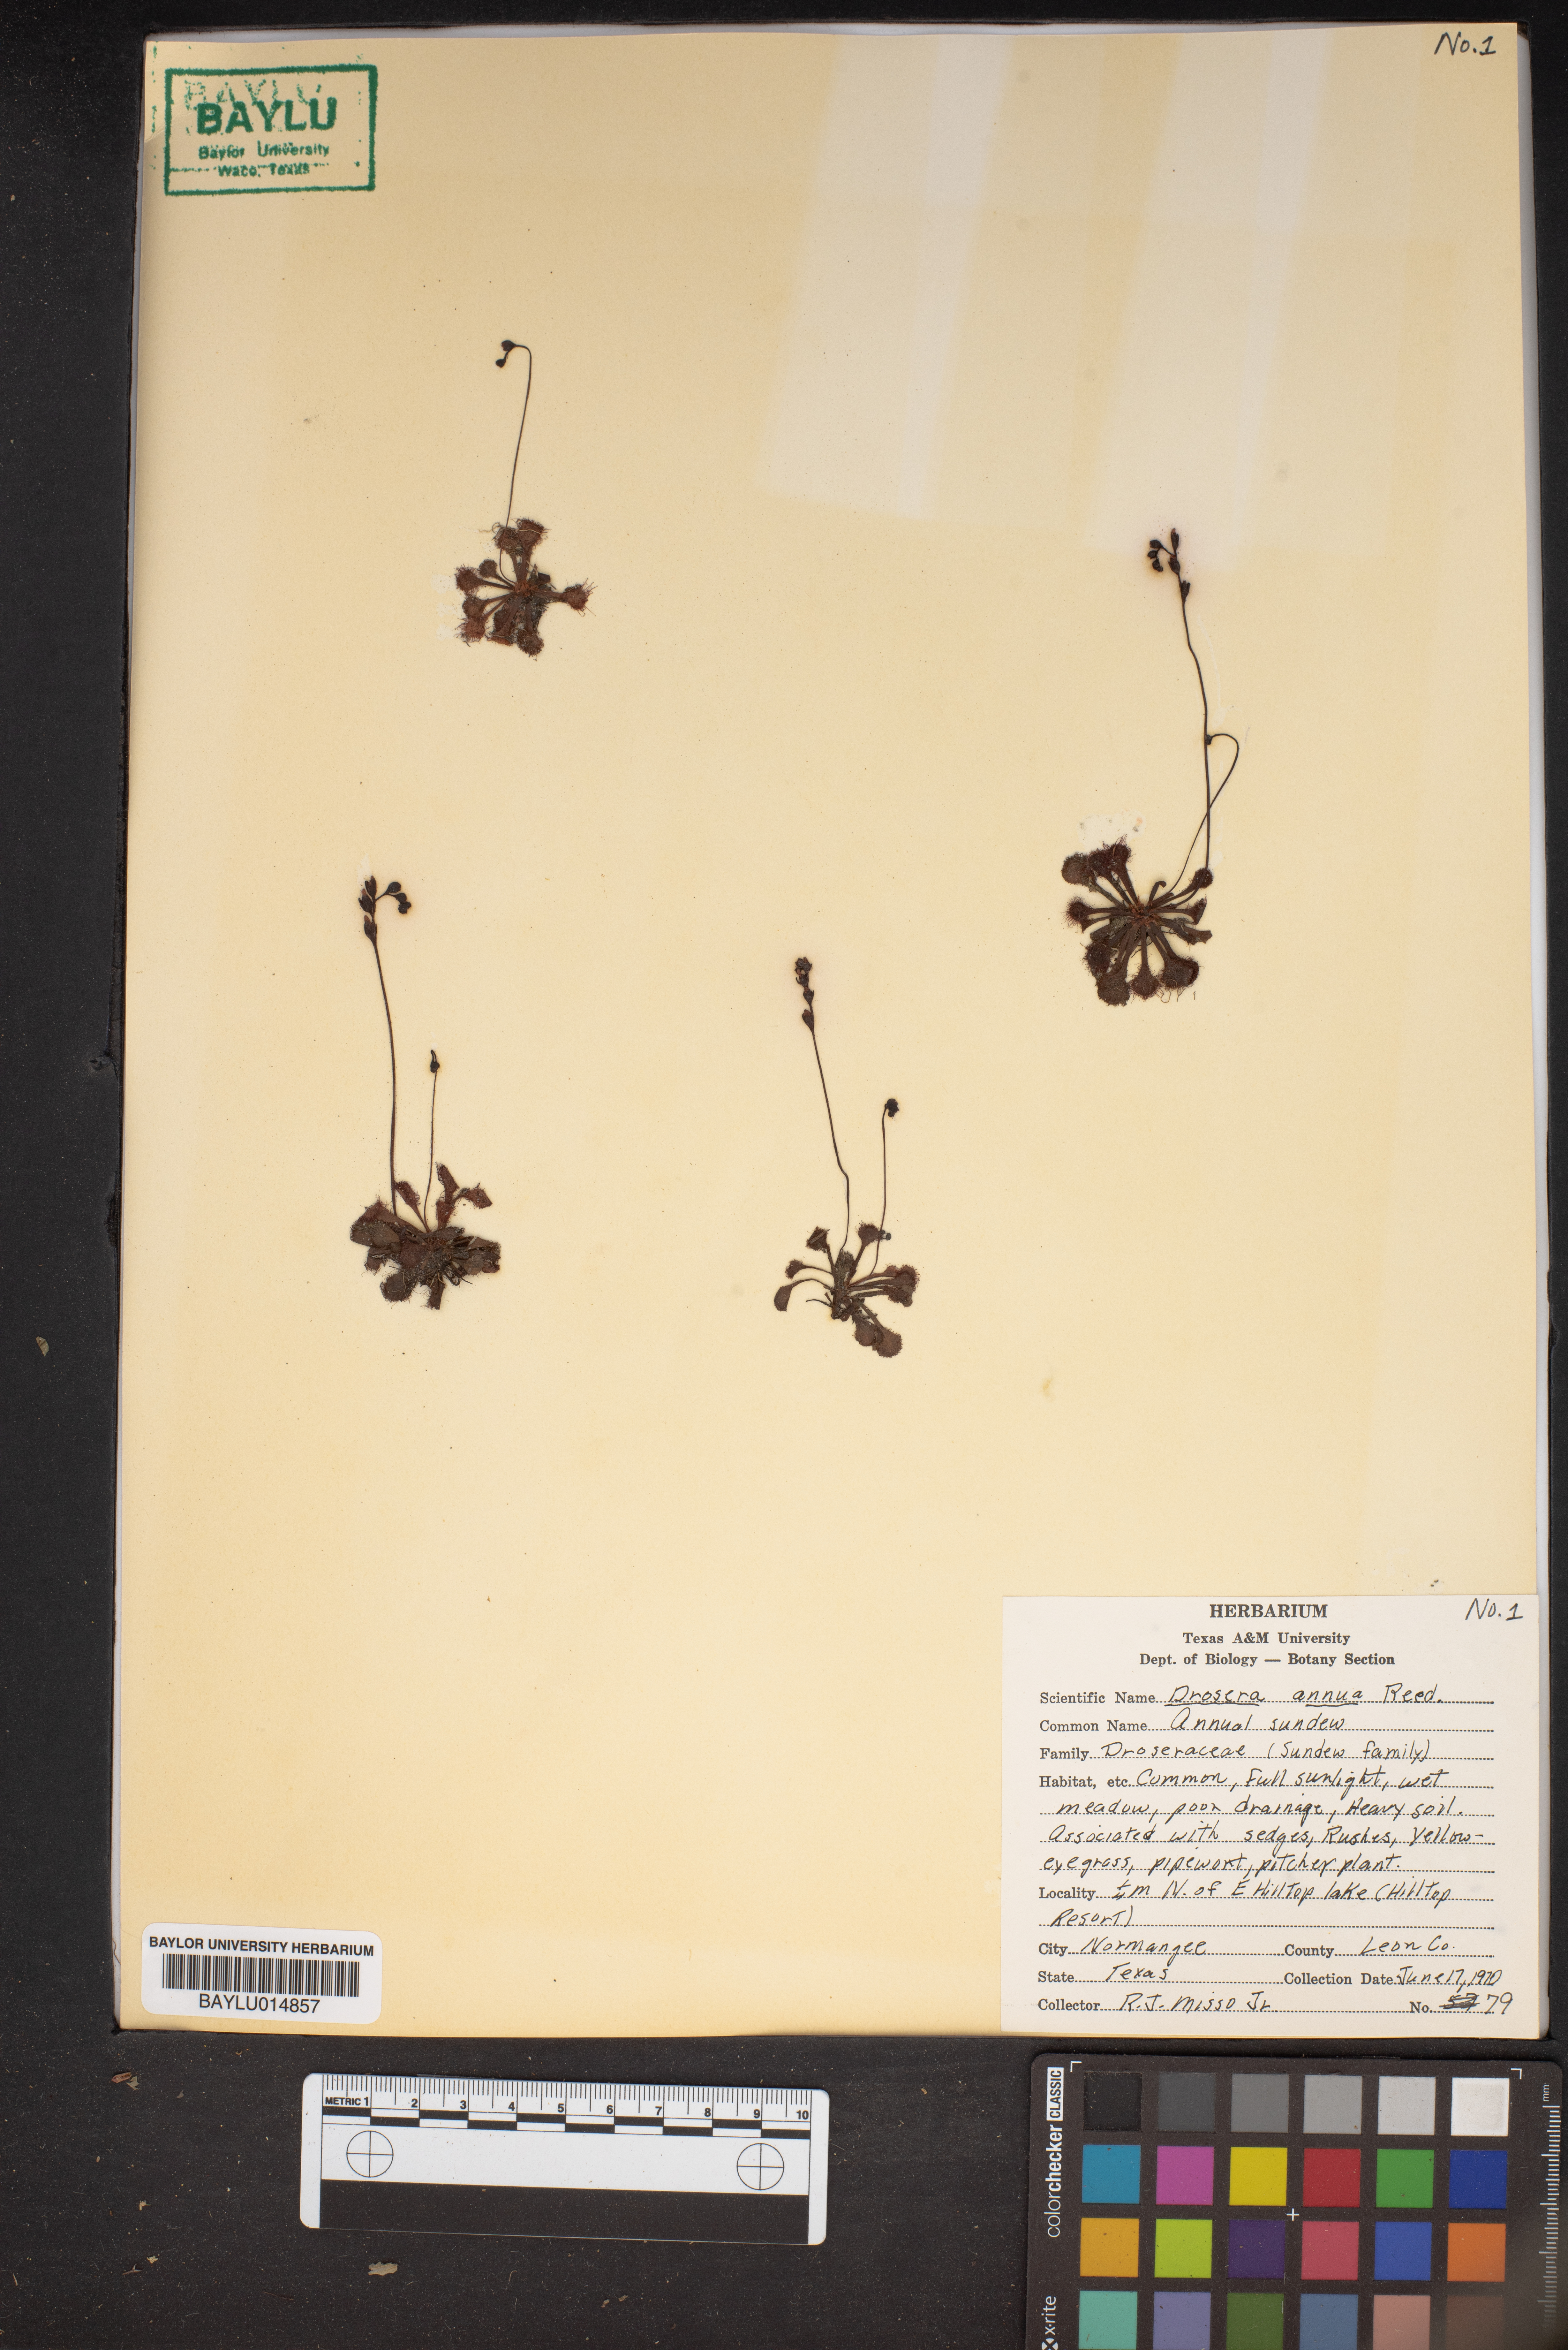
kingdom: Plantae
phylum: Tracheophyta
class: Magnoliopsida
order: Caryophyllales
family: Droseraceae
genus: Drosera
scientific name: Drosera brevifolia
